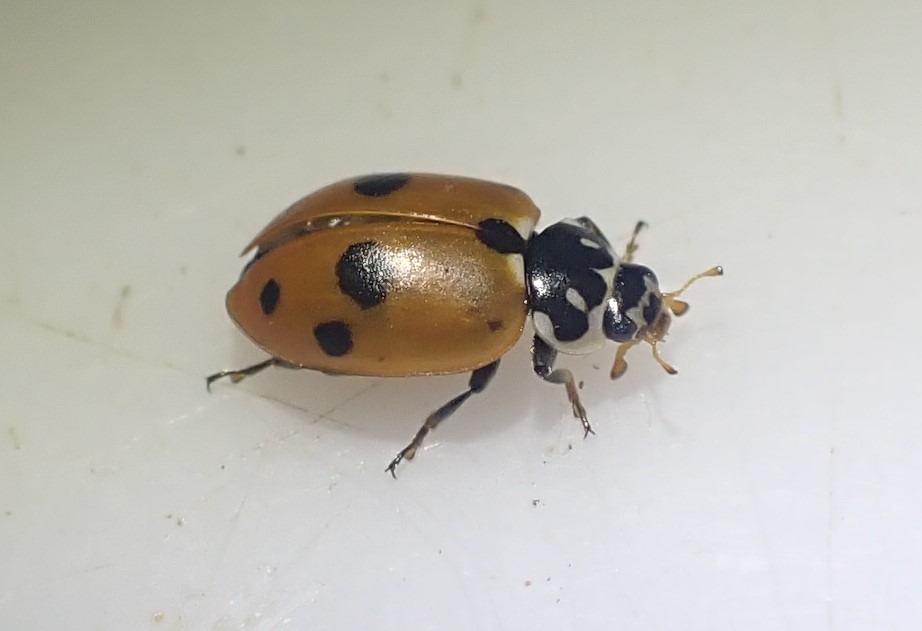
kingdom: Animalia
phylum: Arthropoda
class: Insecta
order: Coleoptera
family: Coccinellidae
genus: Hippodamia
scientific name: Hippodamia variegata
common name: Adonis' mariehøne
